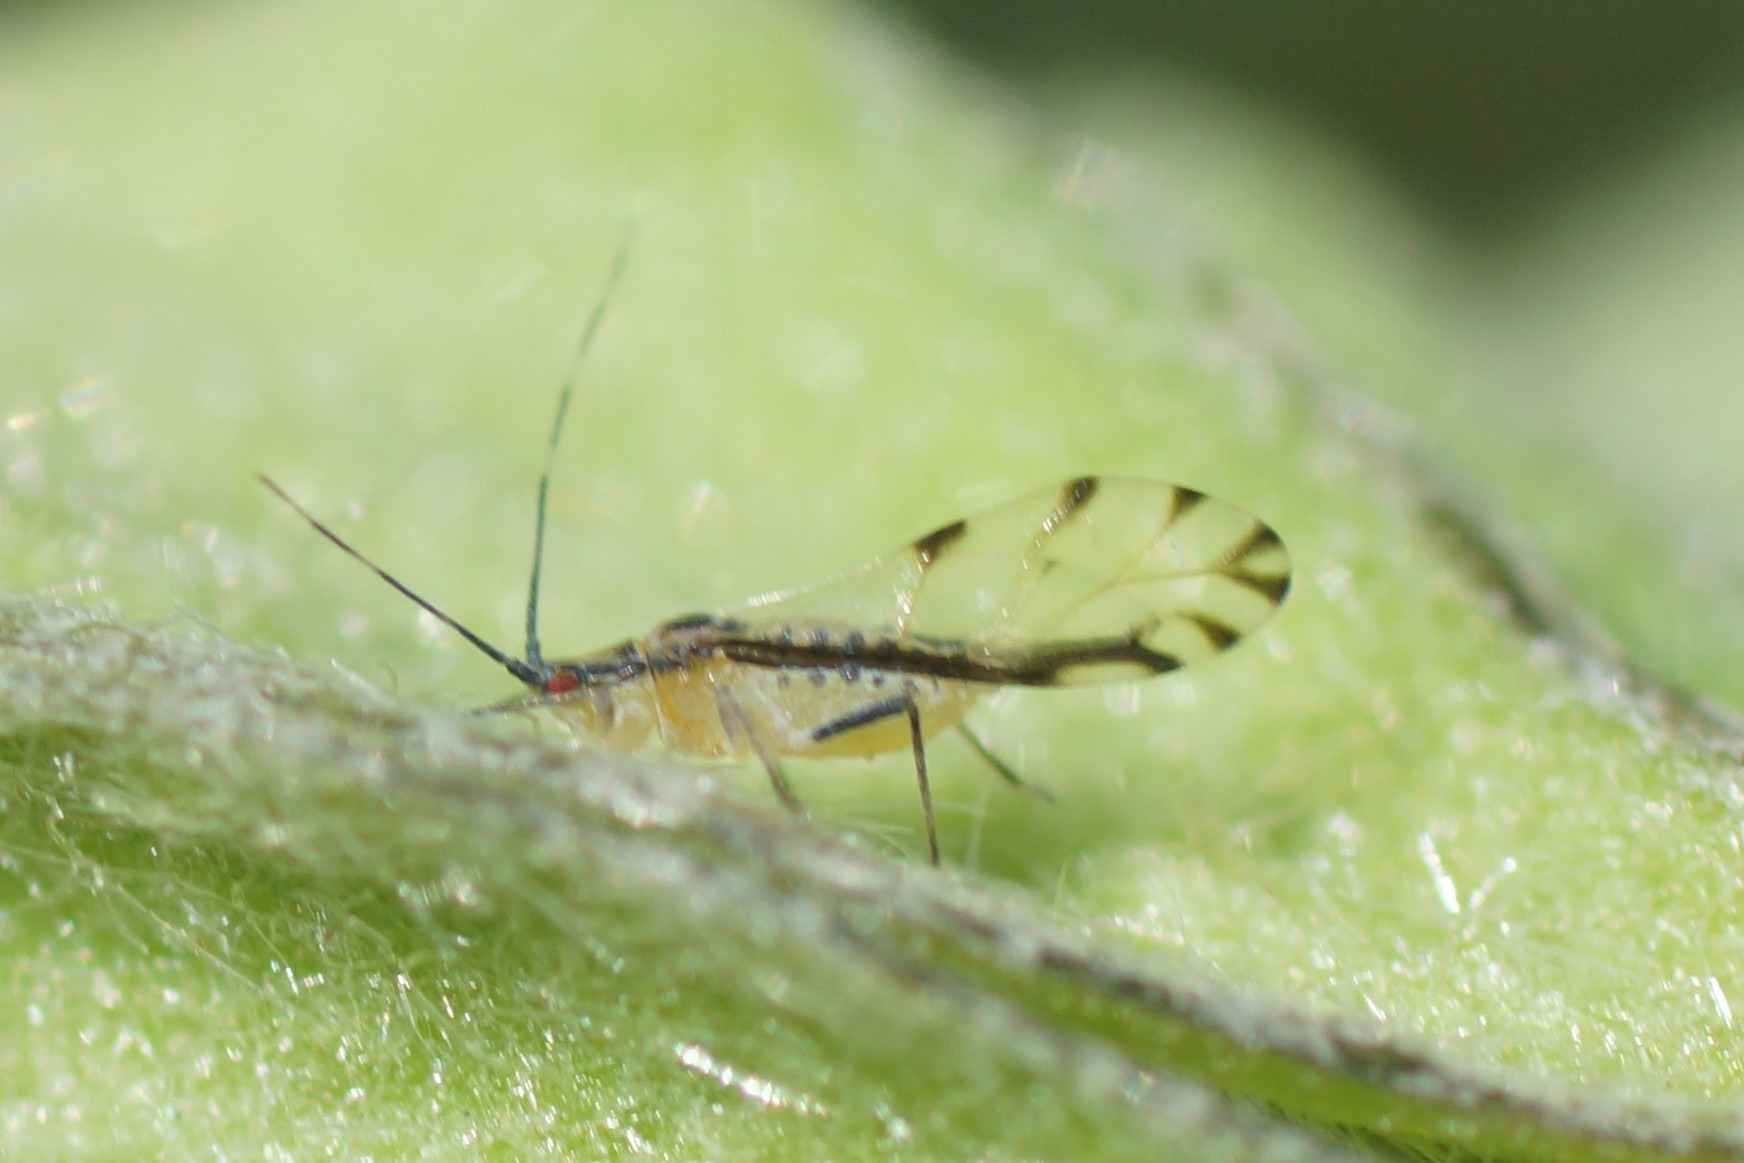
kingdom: Animalia
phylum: Arthropoda
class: Insecta
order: Hemiptera
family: Aphididae
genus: Eucallipterus
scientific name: Eucallipterus tiliae
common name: Lindebladlus
